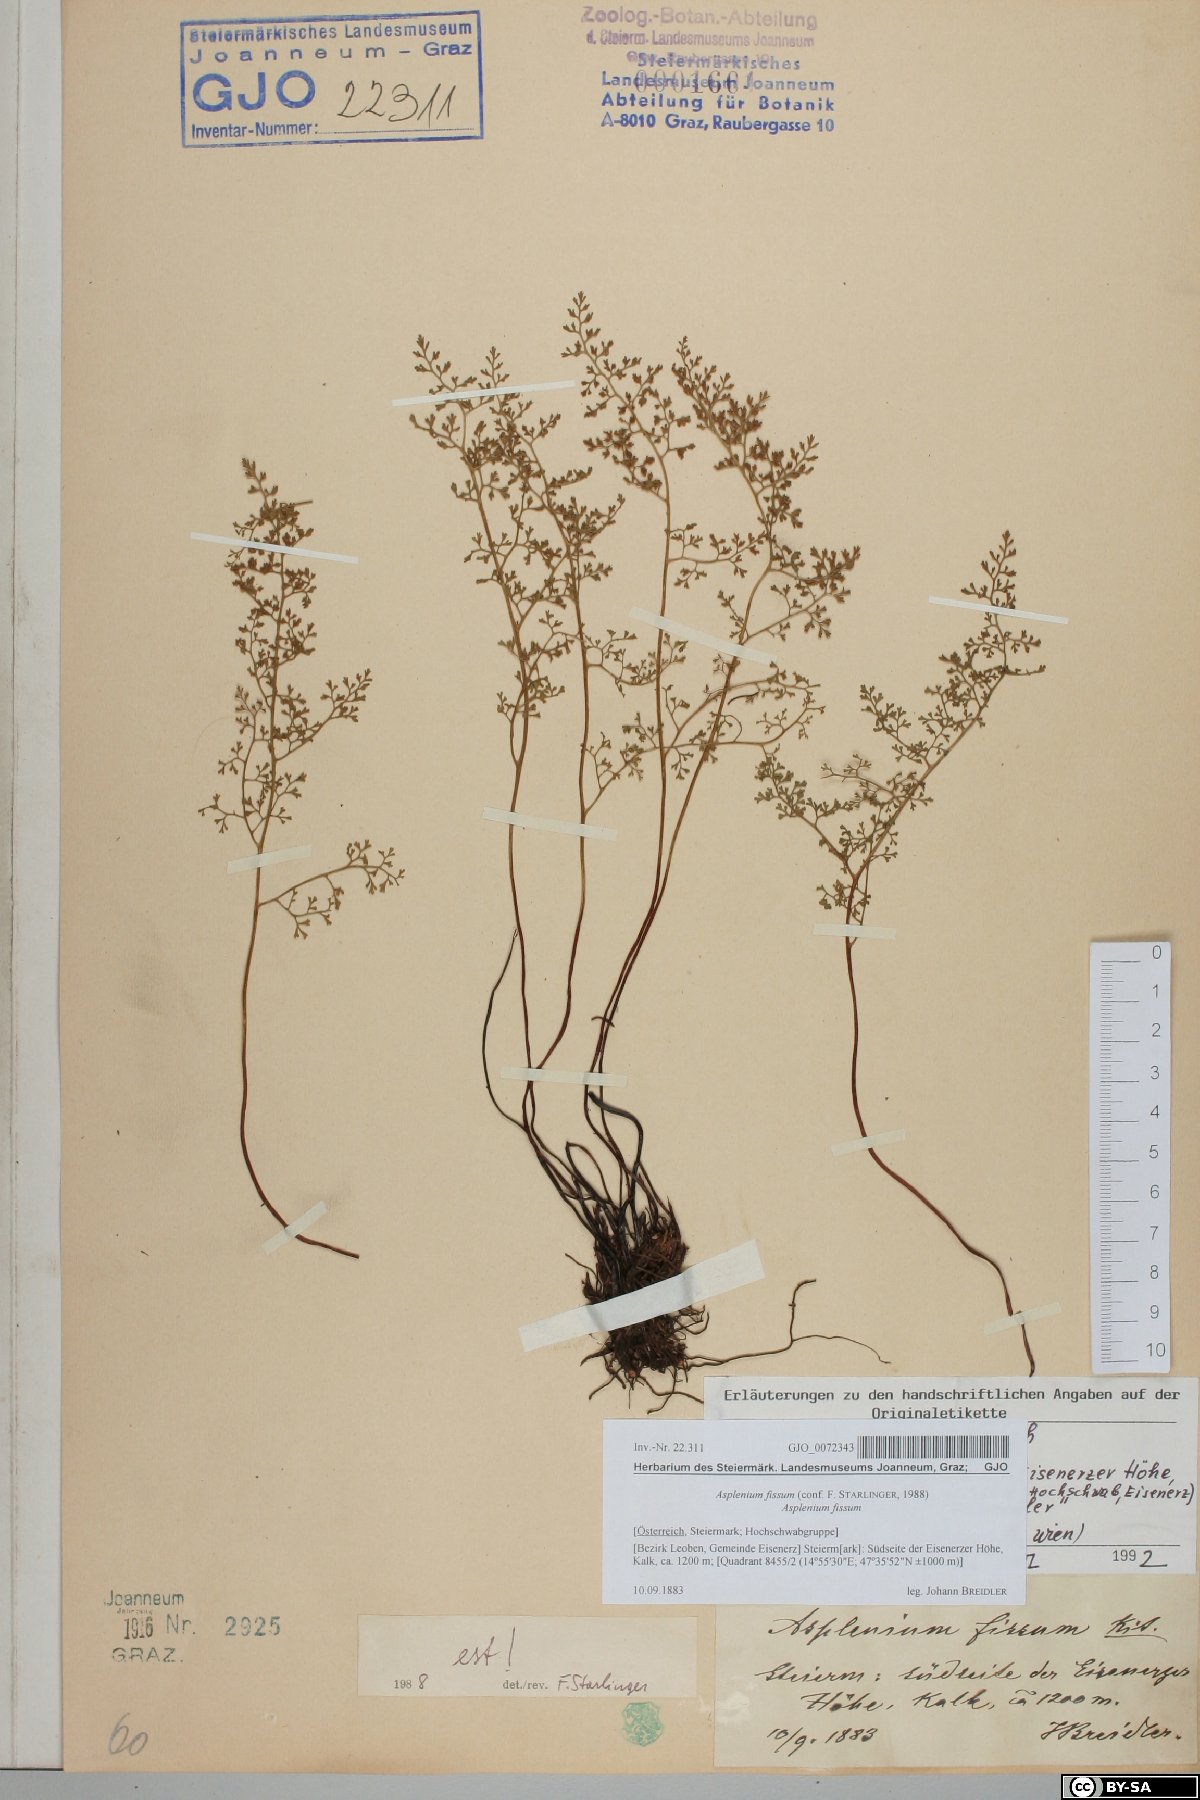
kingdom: Plantae
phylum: Tracheophyta
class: Polypodiopsida
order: Polypodiales
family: Aspleniaceae
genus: Asplenium
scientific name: Asplenium fissum
